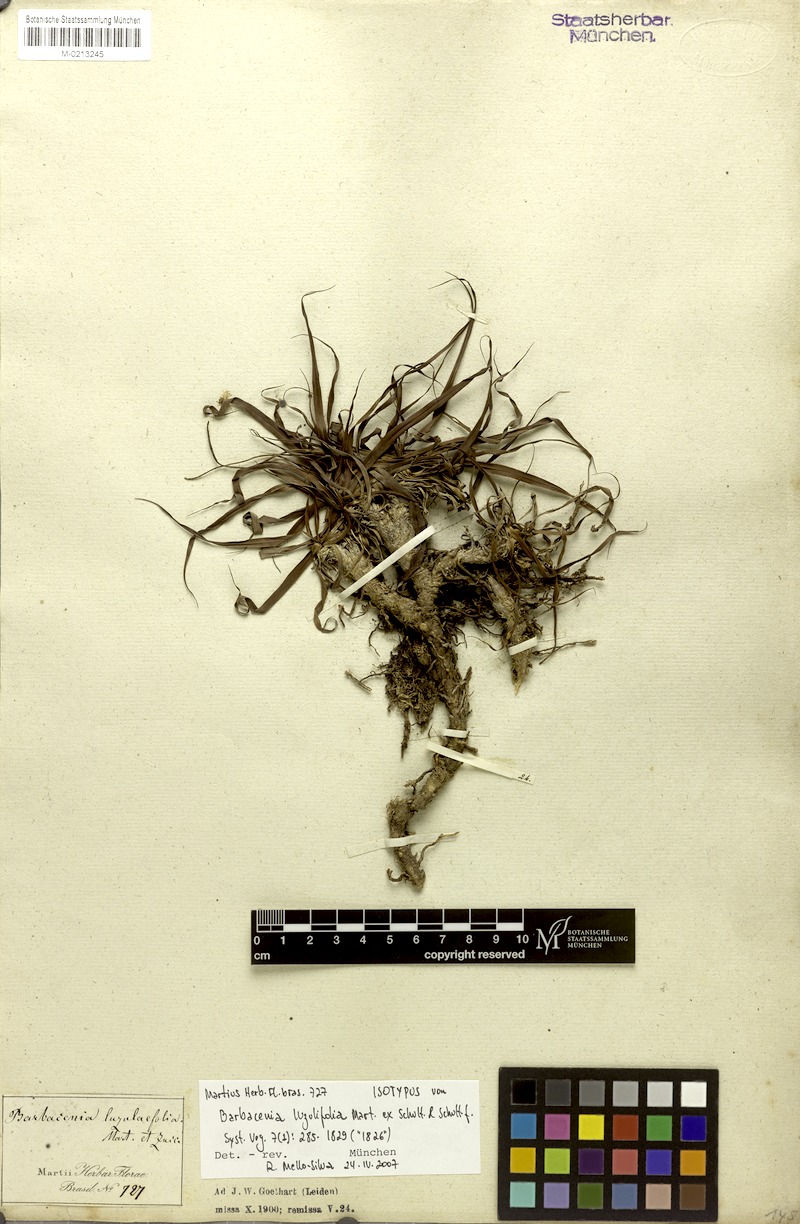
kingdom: Plantae
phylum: Tracheophyta
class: Liliopsida
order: Pandanales
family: Velloziaceae
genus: Barbacenia
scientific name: Barbacenia luzulifolia
